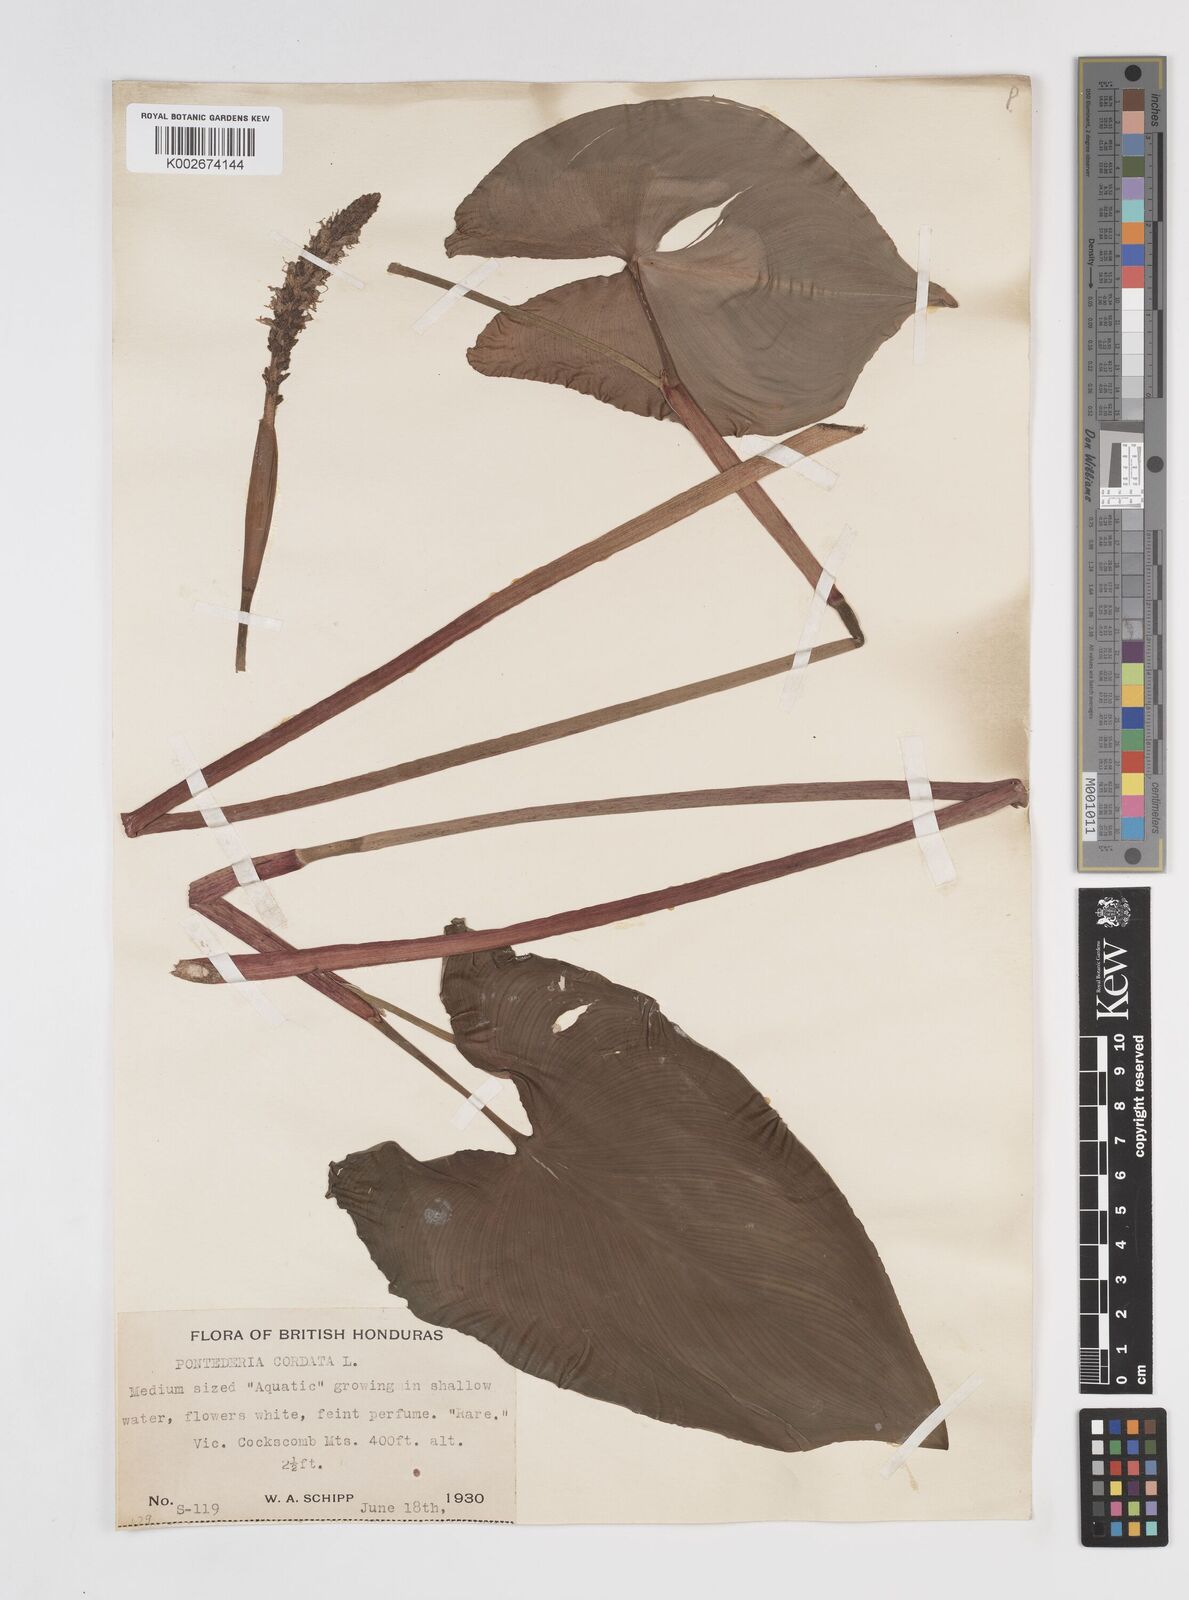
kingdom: Plantae
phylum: Tracheophyta
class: Liliopsida
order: Commelinales
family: Pontederiaceae
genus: Pontederia
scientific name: Pontederia sagittata
